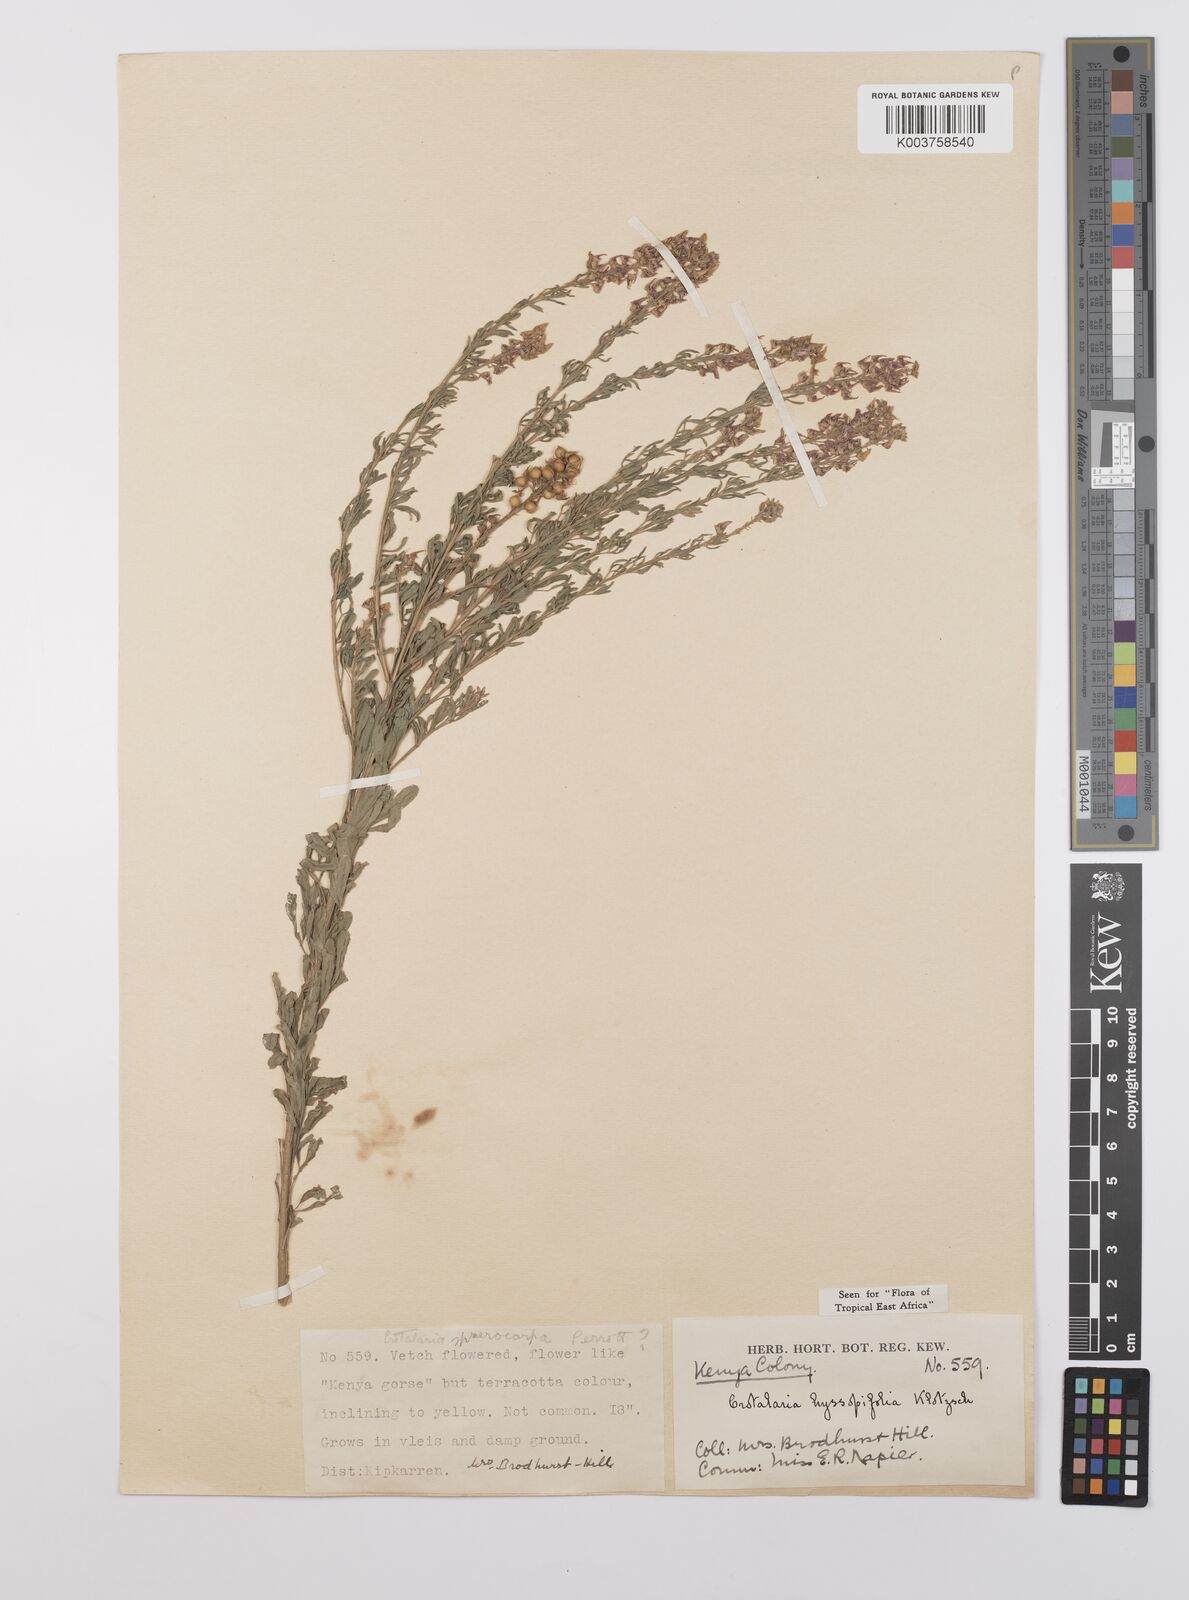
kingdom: Plantae
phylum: Tracheophyta
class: Magnoliopsida
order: Fabales
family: Fabaceae
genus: Crotalaria
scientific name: Crotalaria hyssopifolia
